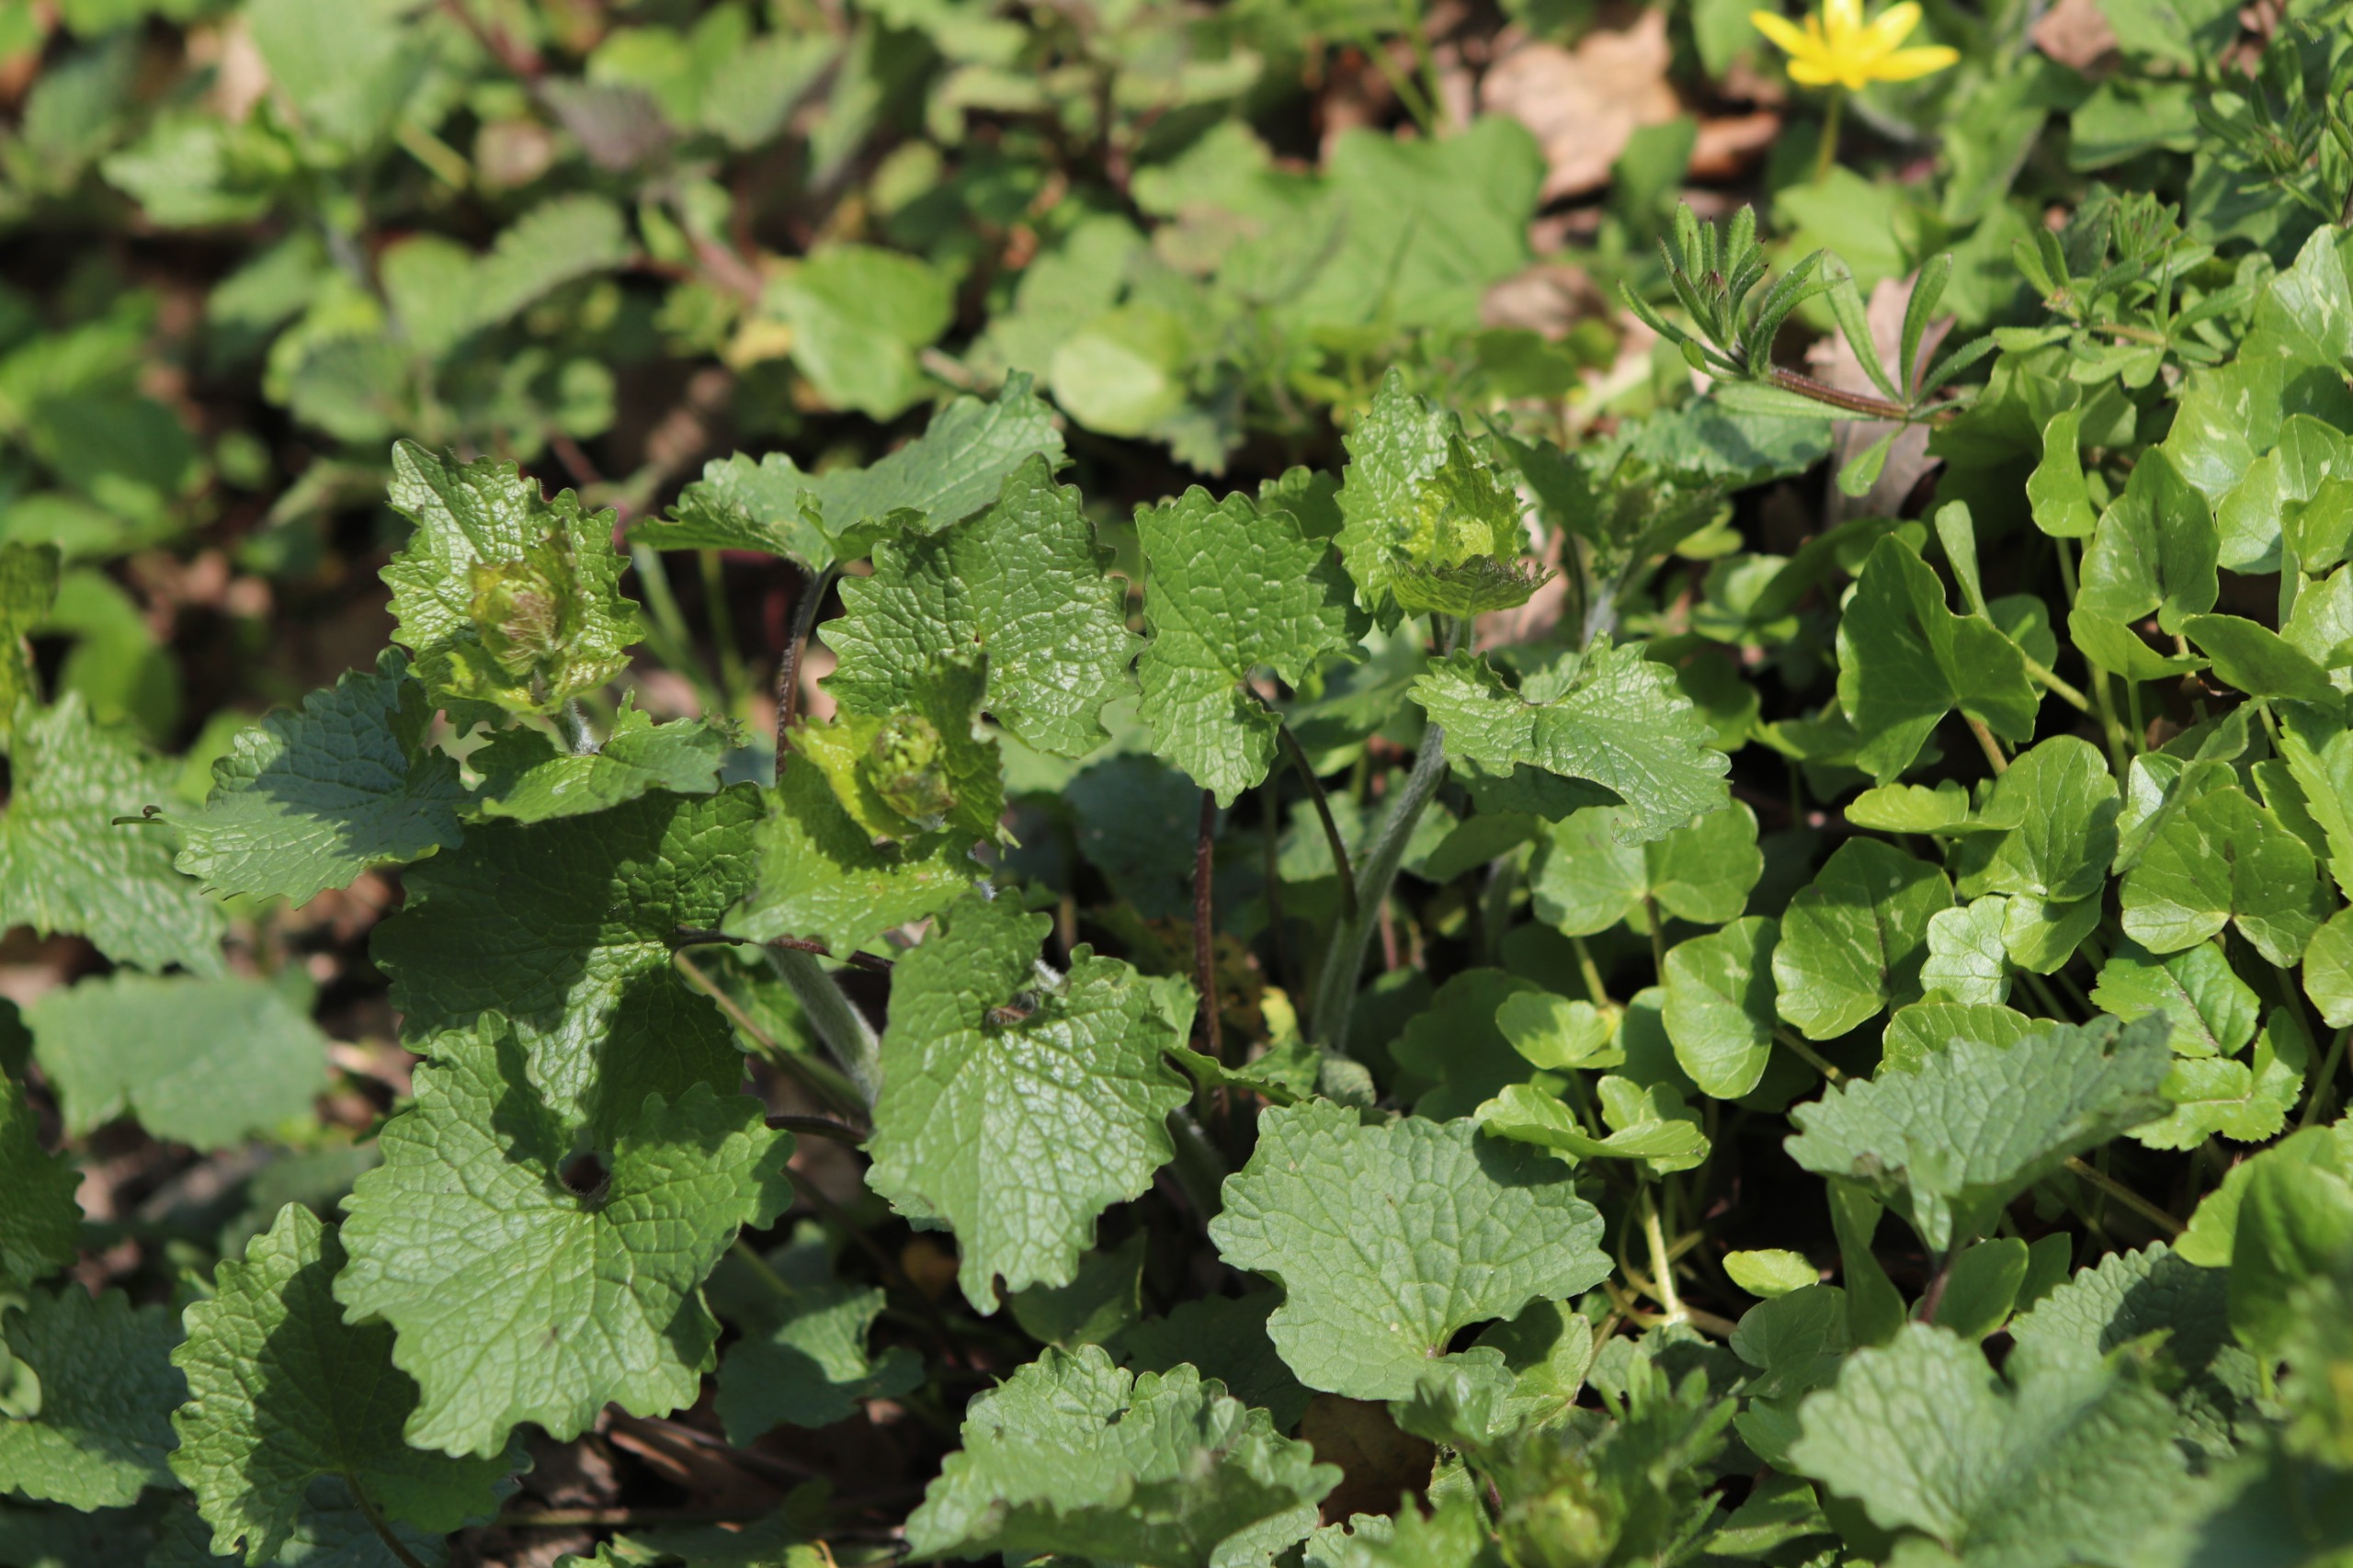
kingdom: Plantae
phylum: Tracheophyta
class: Magnoliopsida
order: Brassicales
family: Brassicaceae
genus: Alliaria
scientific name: Alliaria petiolata
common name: Løgkarse
